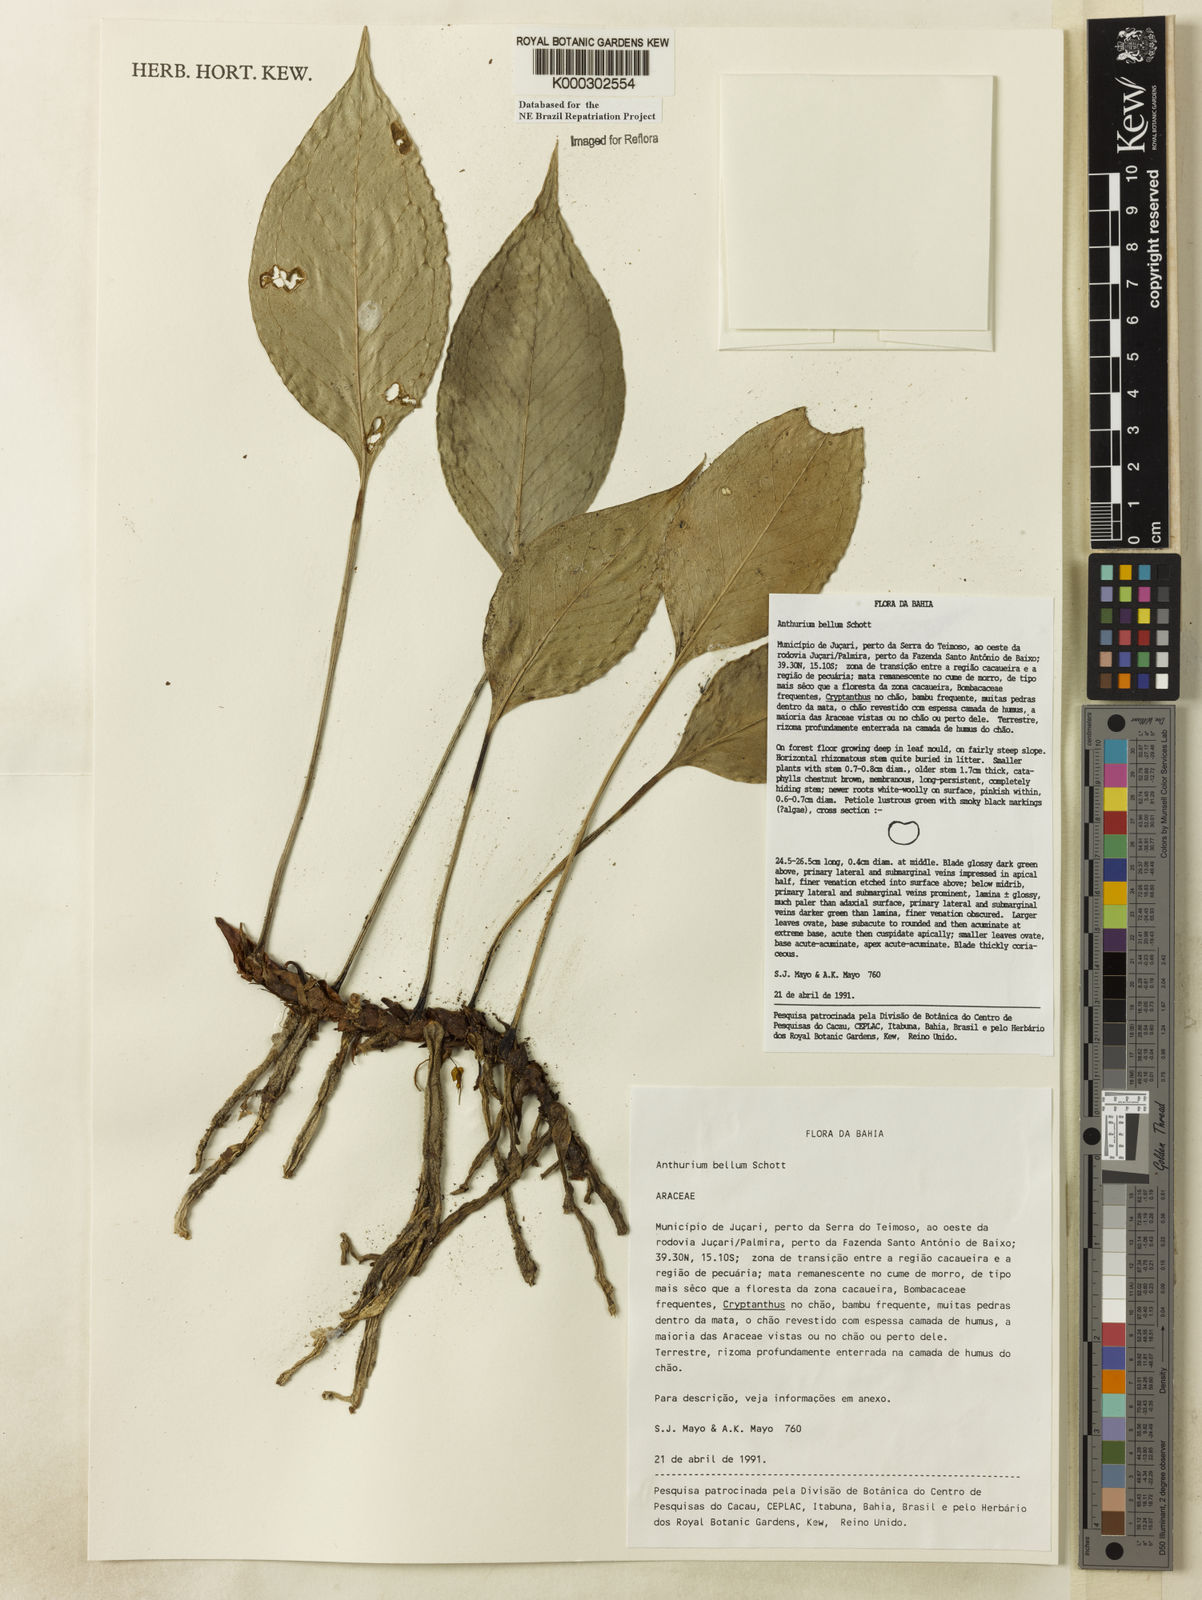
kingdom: Plantae
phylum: Tracheophyta
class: Liliopsida
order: Alismatales
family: Araceae
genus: Anthurium
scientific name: Anthurium bellum
